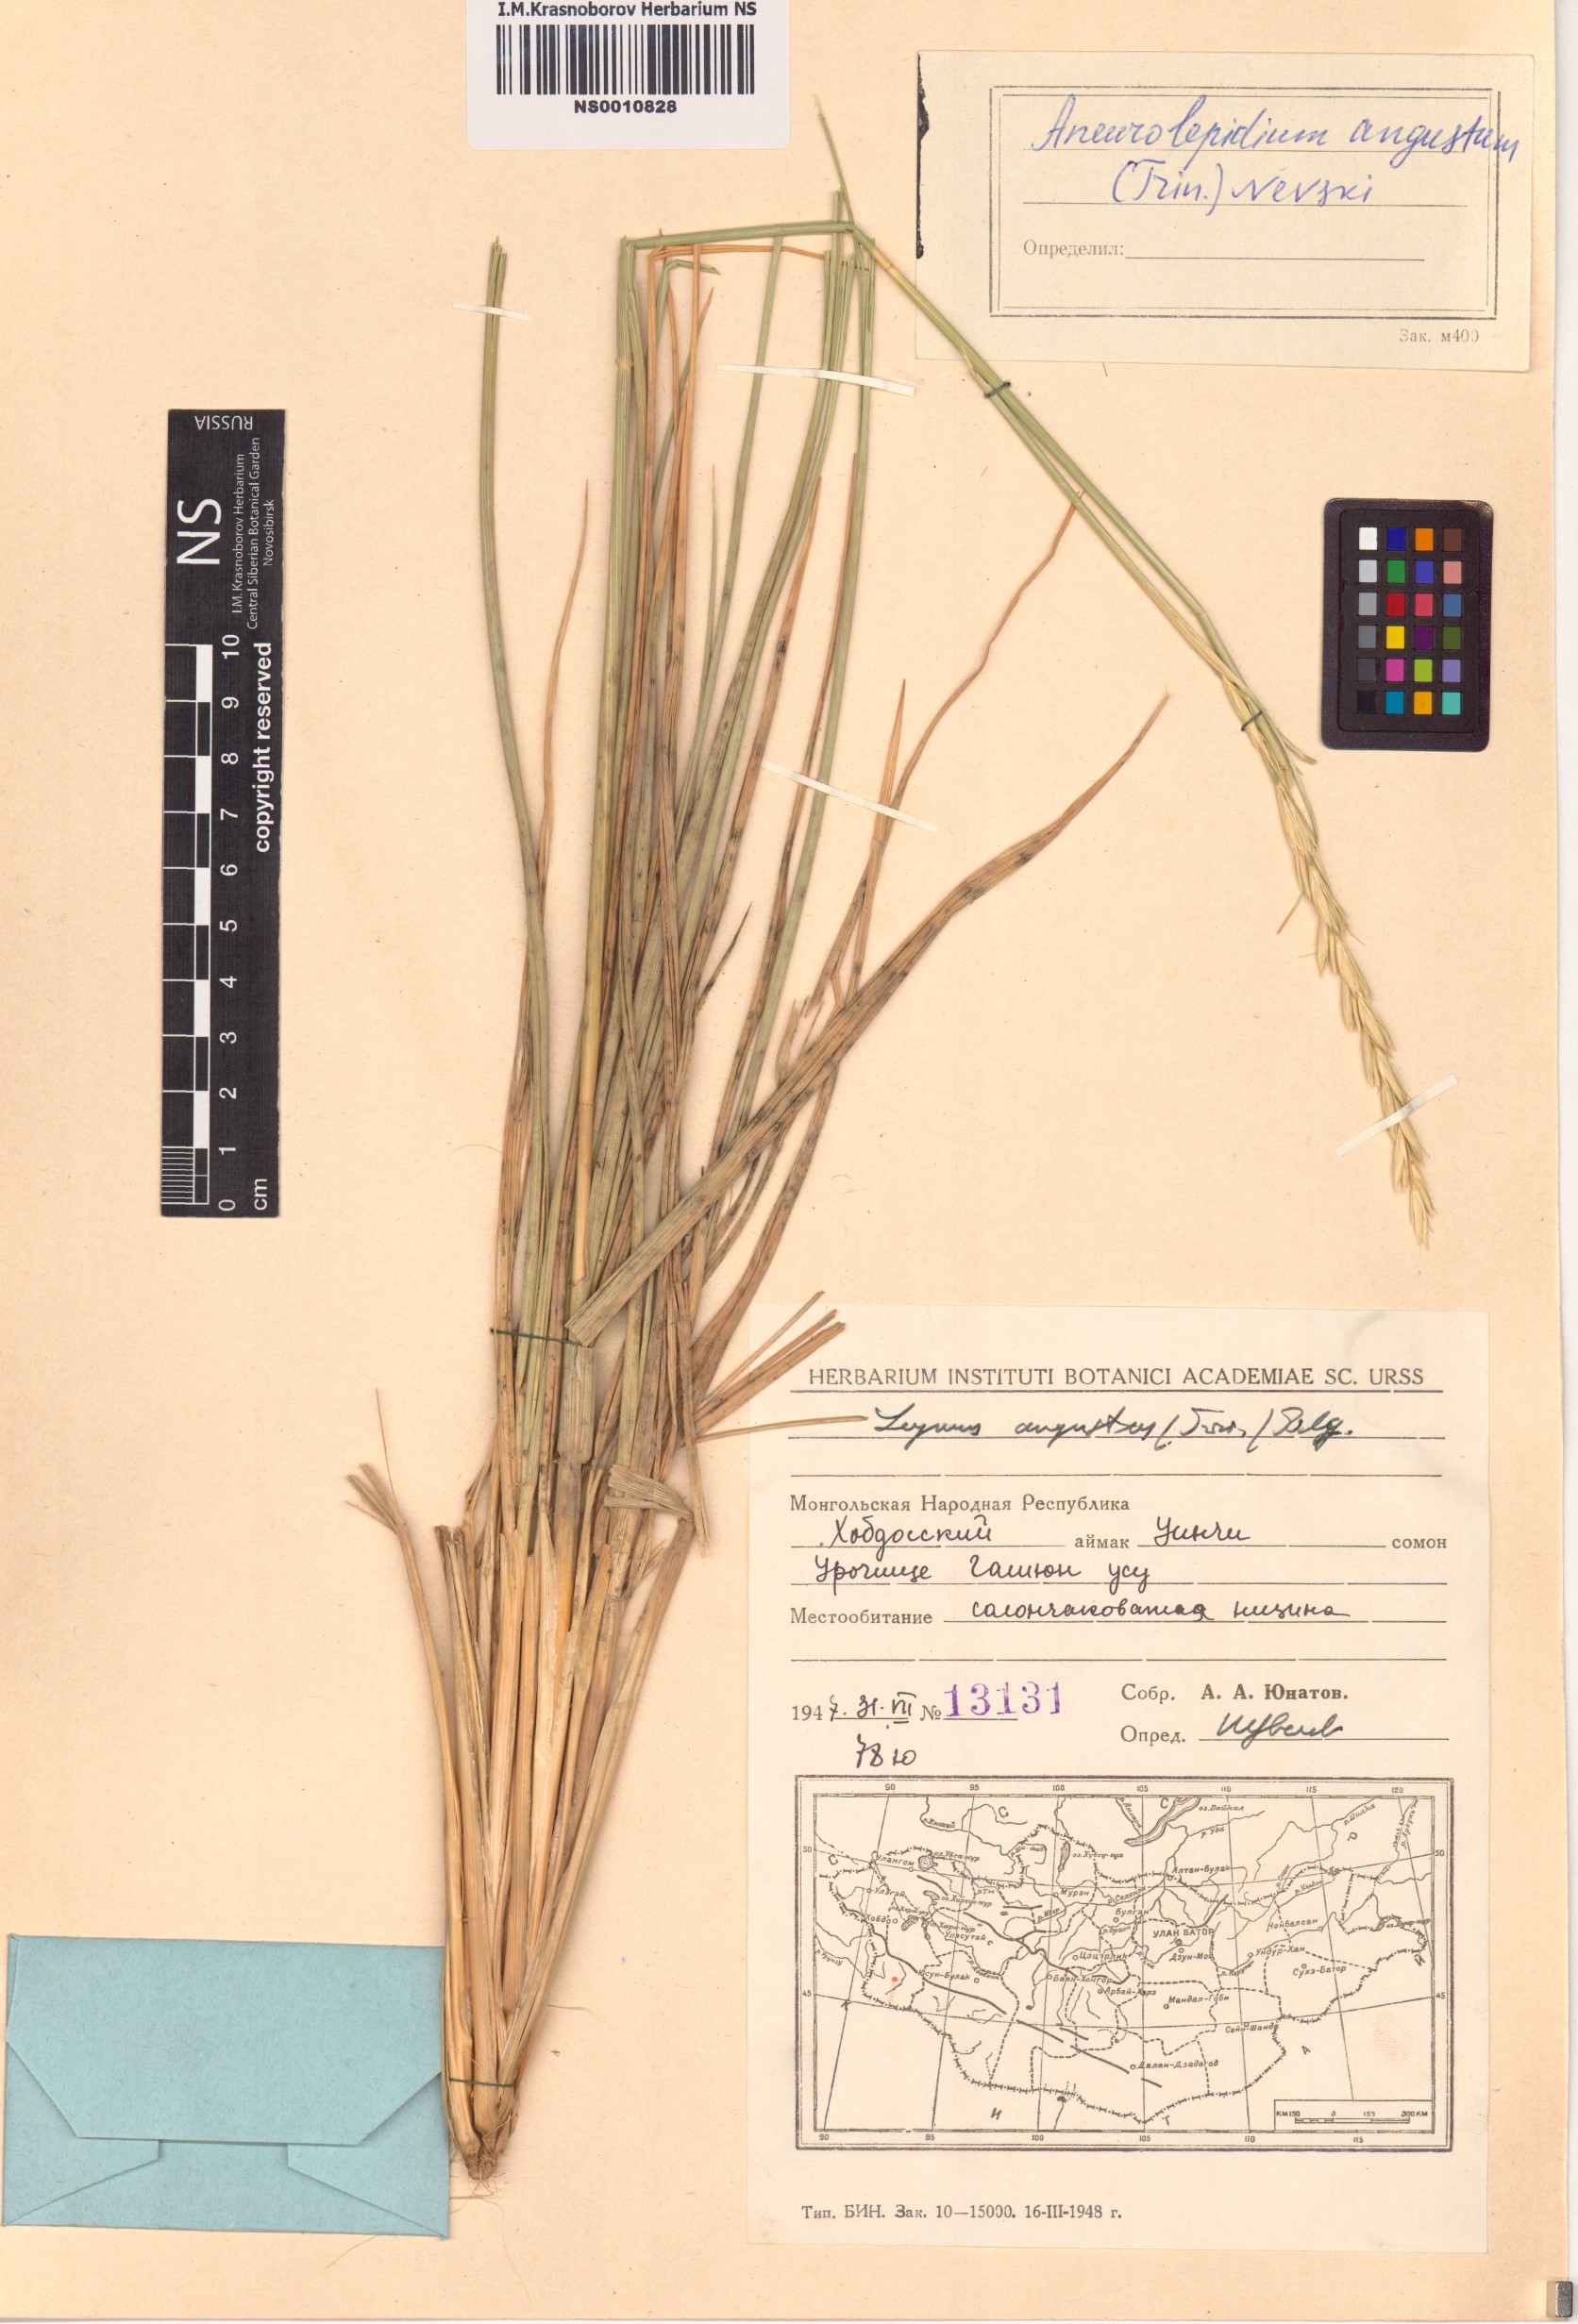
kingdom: Plantae
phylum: Tracheophyta
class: Liliopsida
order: Poales
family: Poaceae
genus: Leymus
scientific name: Leymus angustus
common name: Altai wildrye
